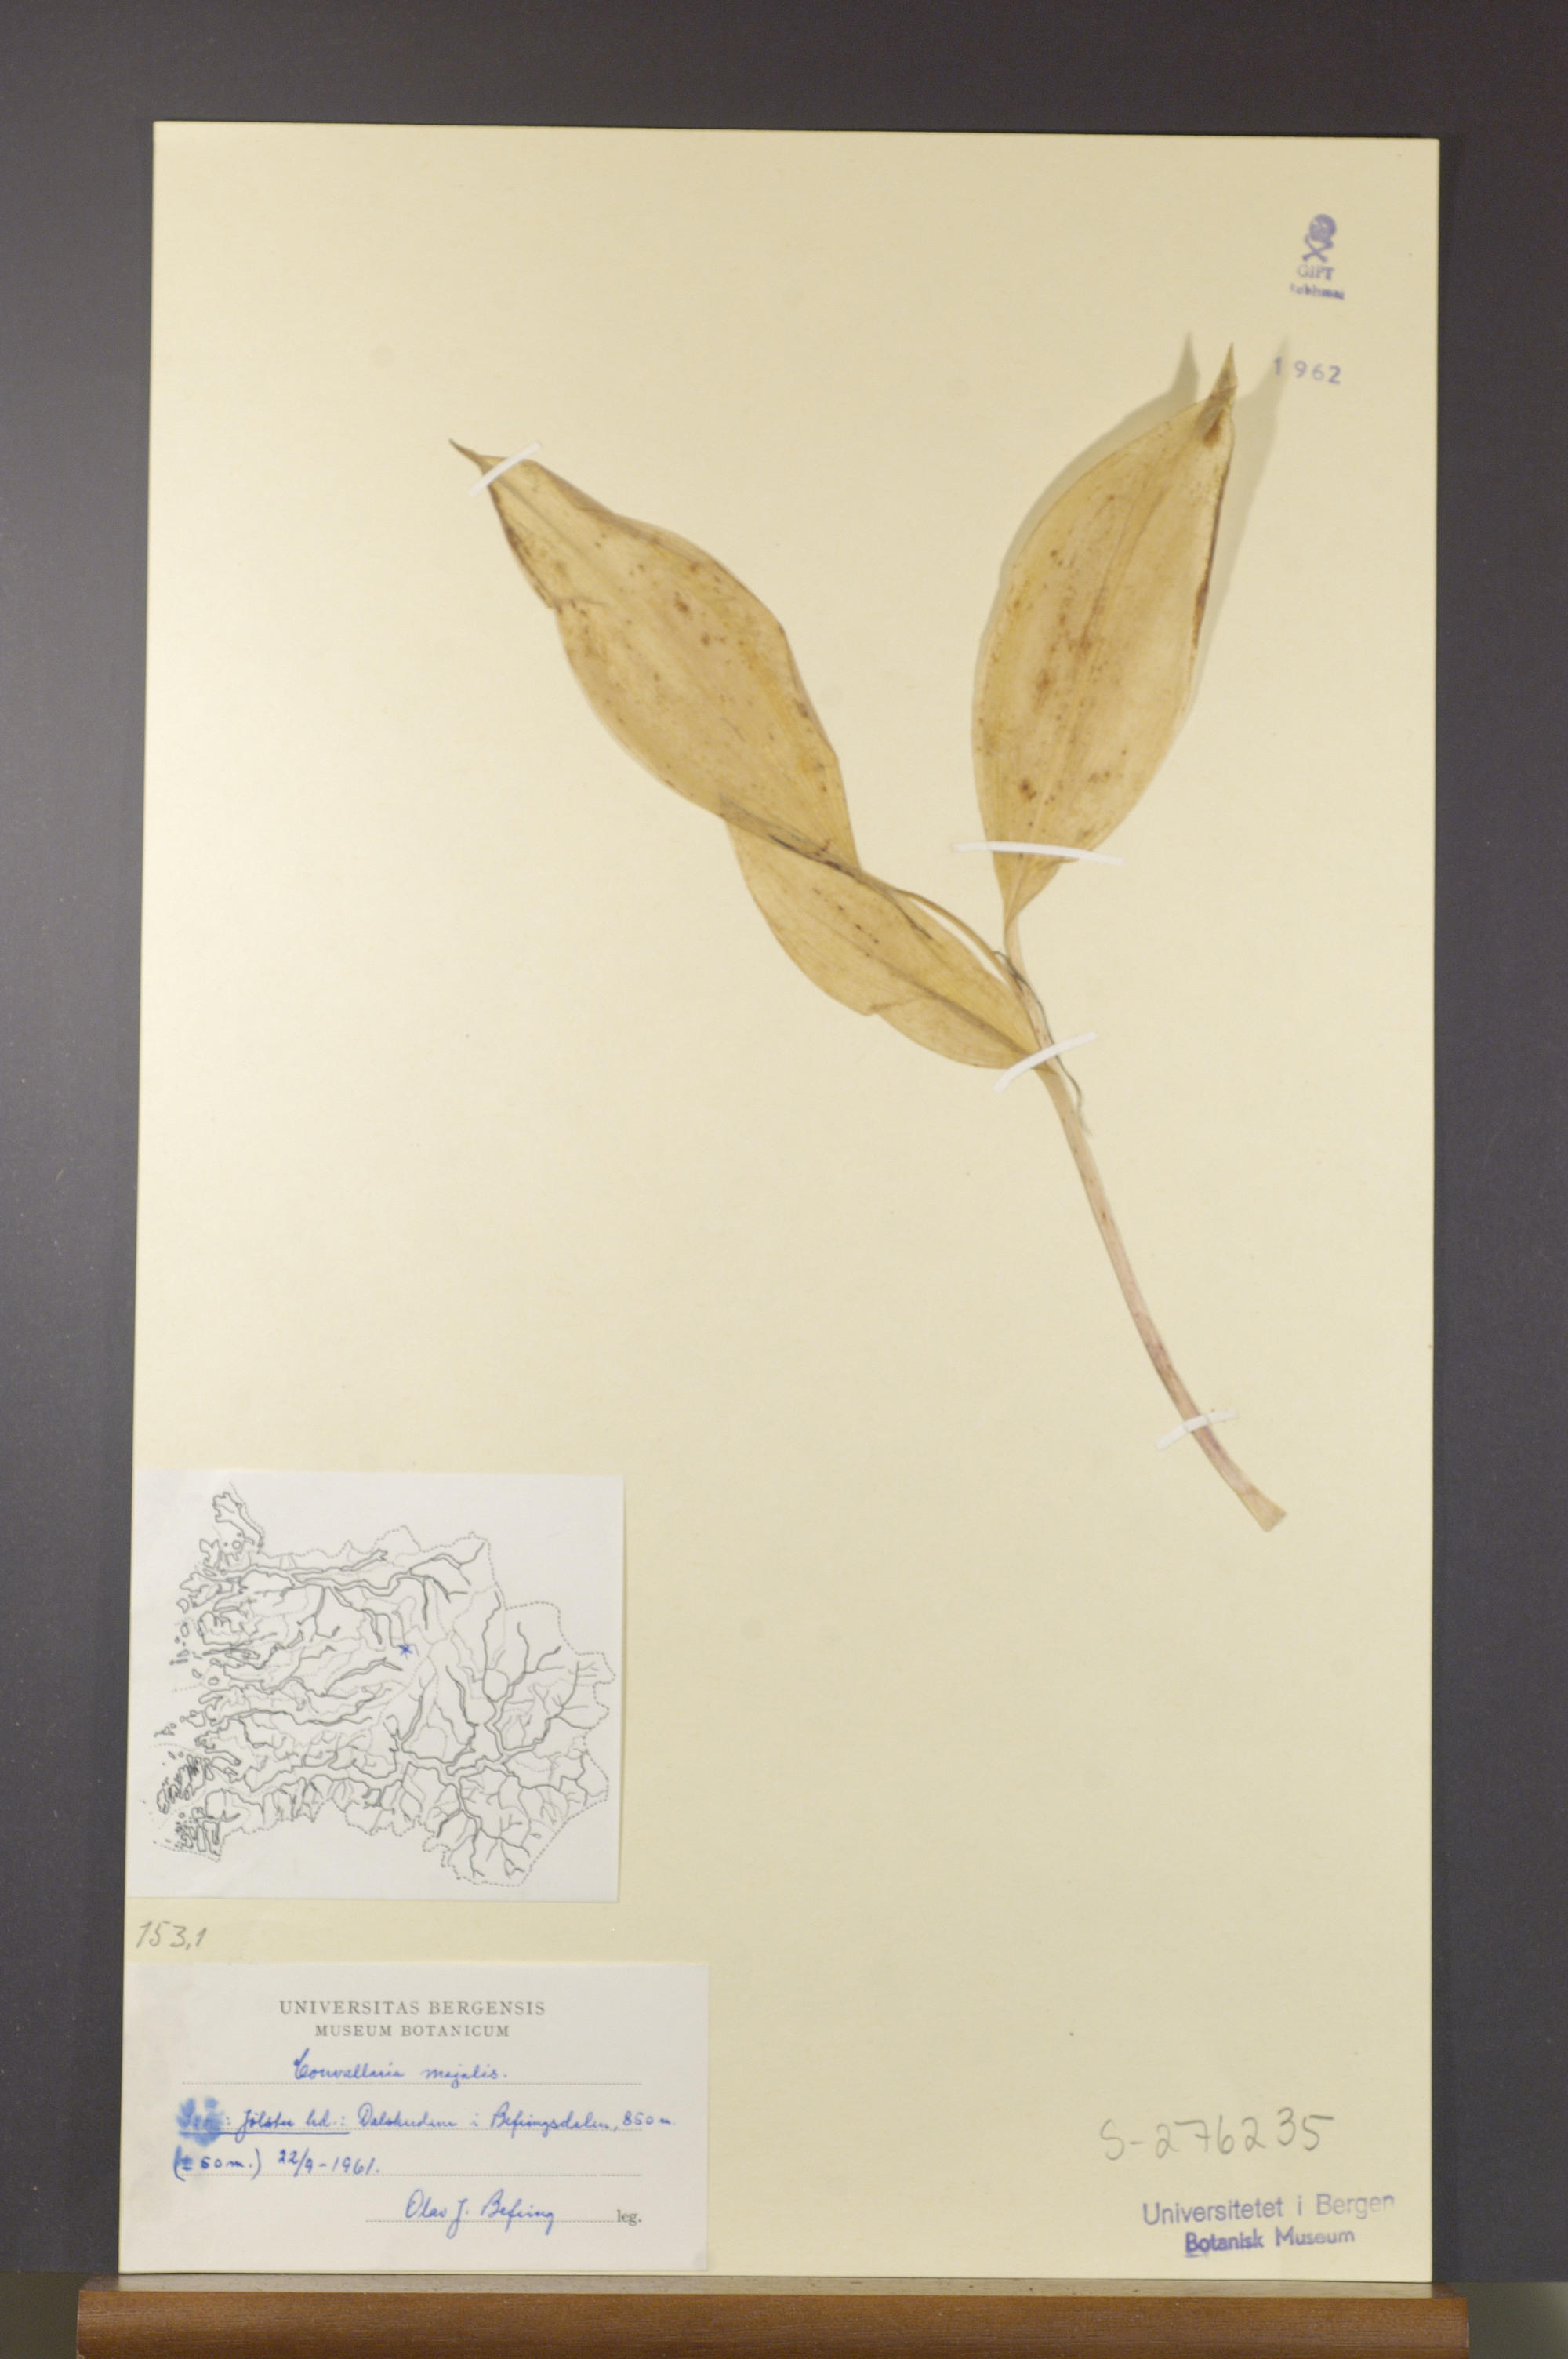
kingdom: Plantae
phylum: Tracheophyta
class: Liliopsida
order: Asparagales
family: Asparagaceae
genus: Convallaria
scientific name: Convallaria majalis
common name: Lily-of-the-valley
